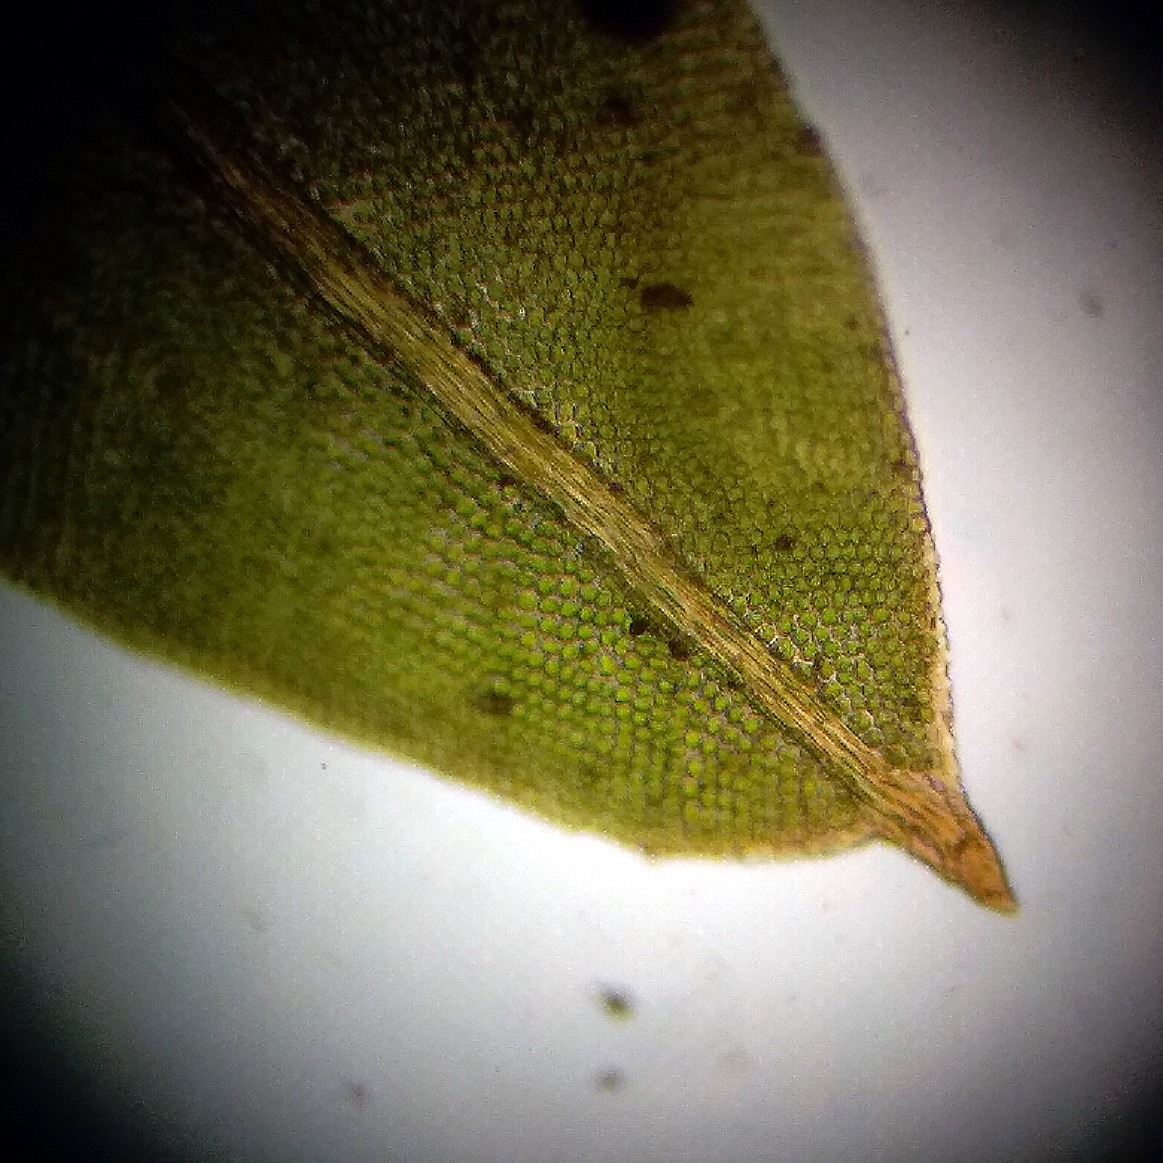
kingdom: Plantae
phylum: Bryophyta
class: Bryopsida
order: Dicranales
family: Fissidentaceae
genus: Fissidens
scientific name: Fissidens taxifolius
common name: Taksbladet rademos
